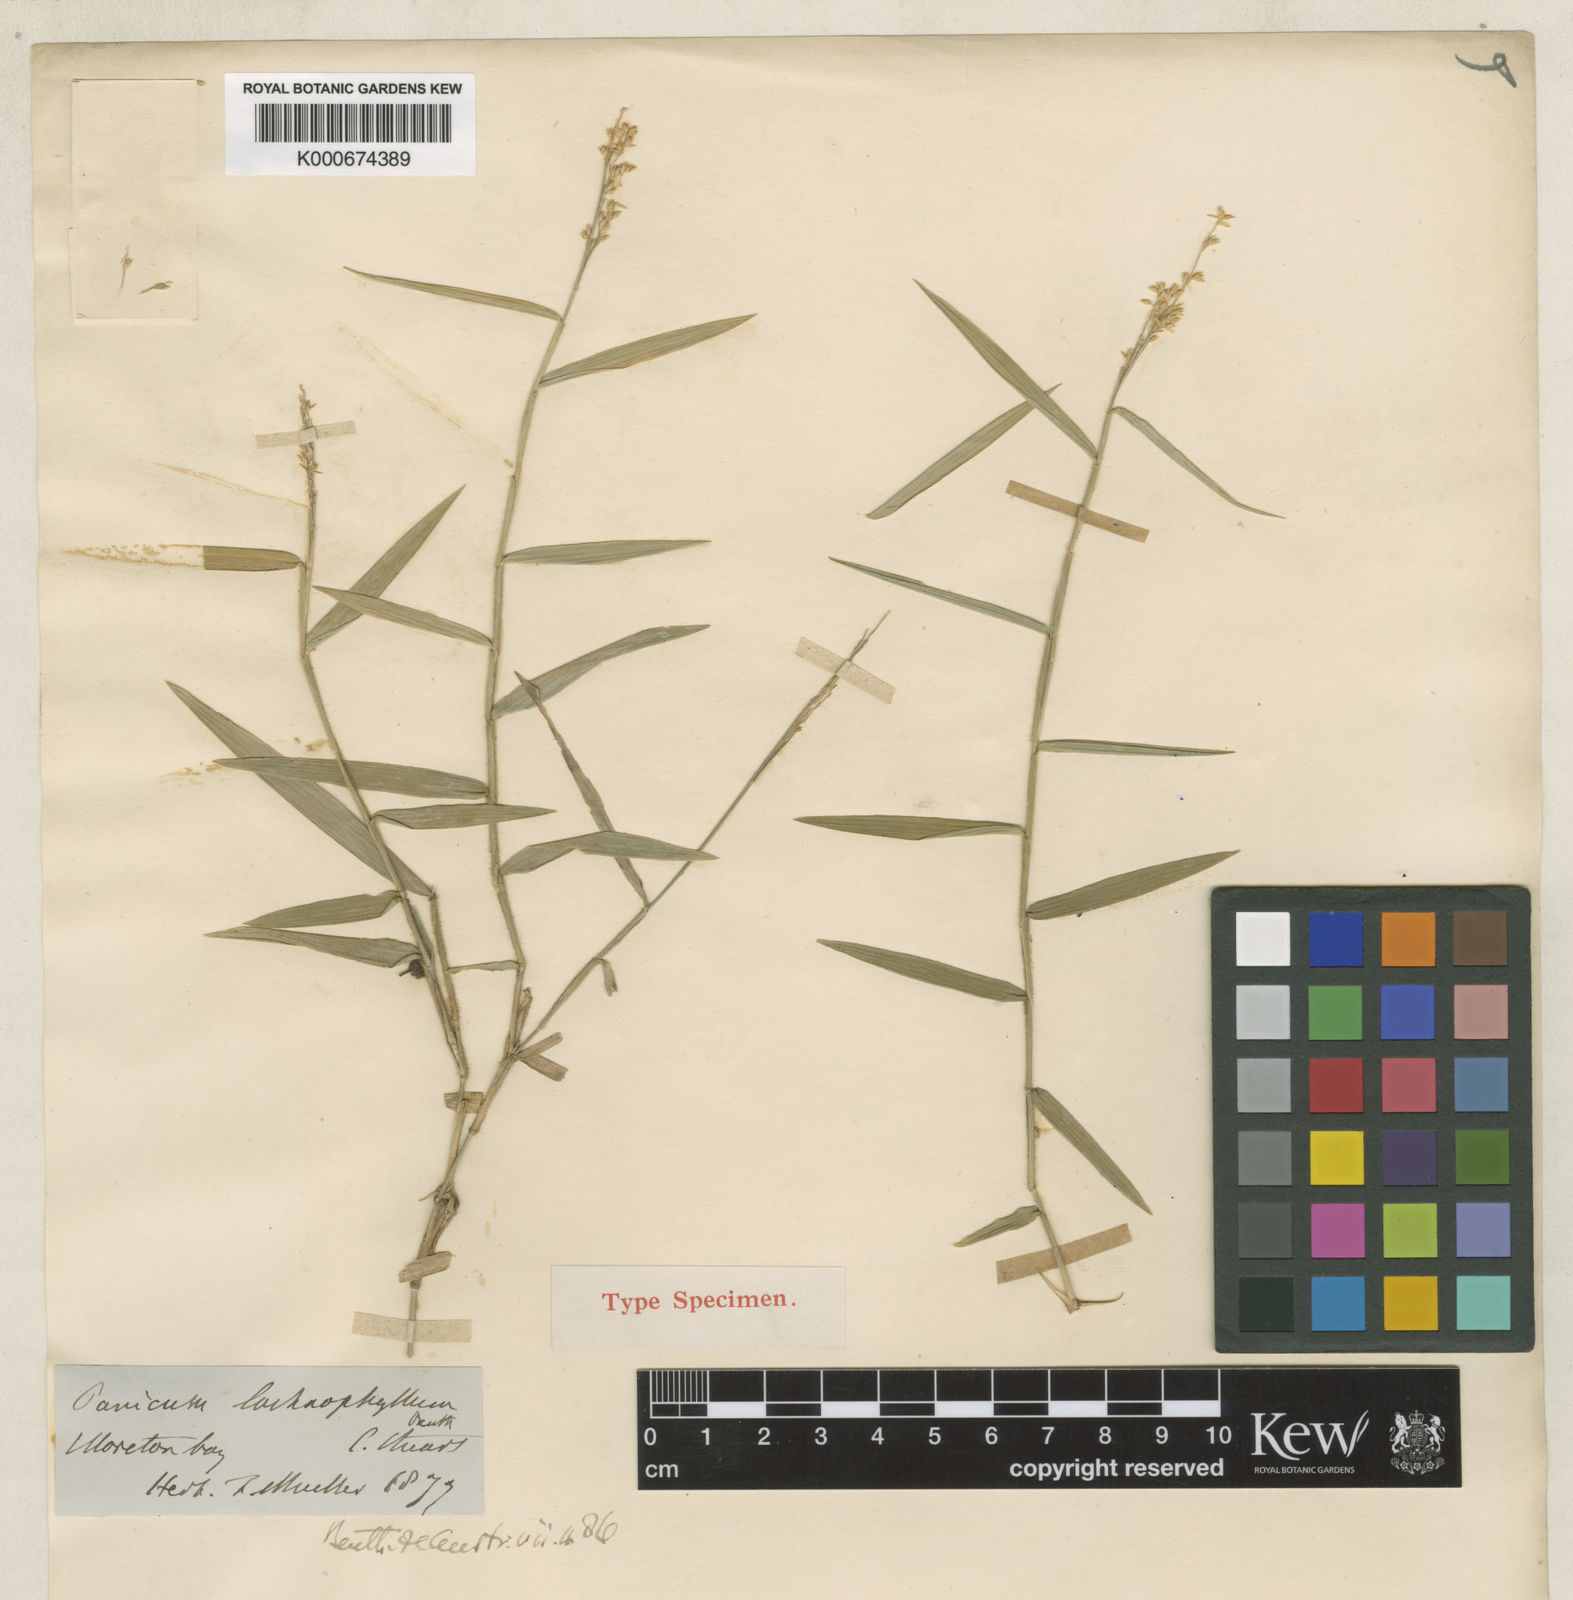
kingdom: Plantae
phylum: Tracheophyta
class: Liliopsida
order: Poales
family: Poaceae
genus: Panicum
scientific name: Panicum lachnophyllum
